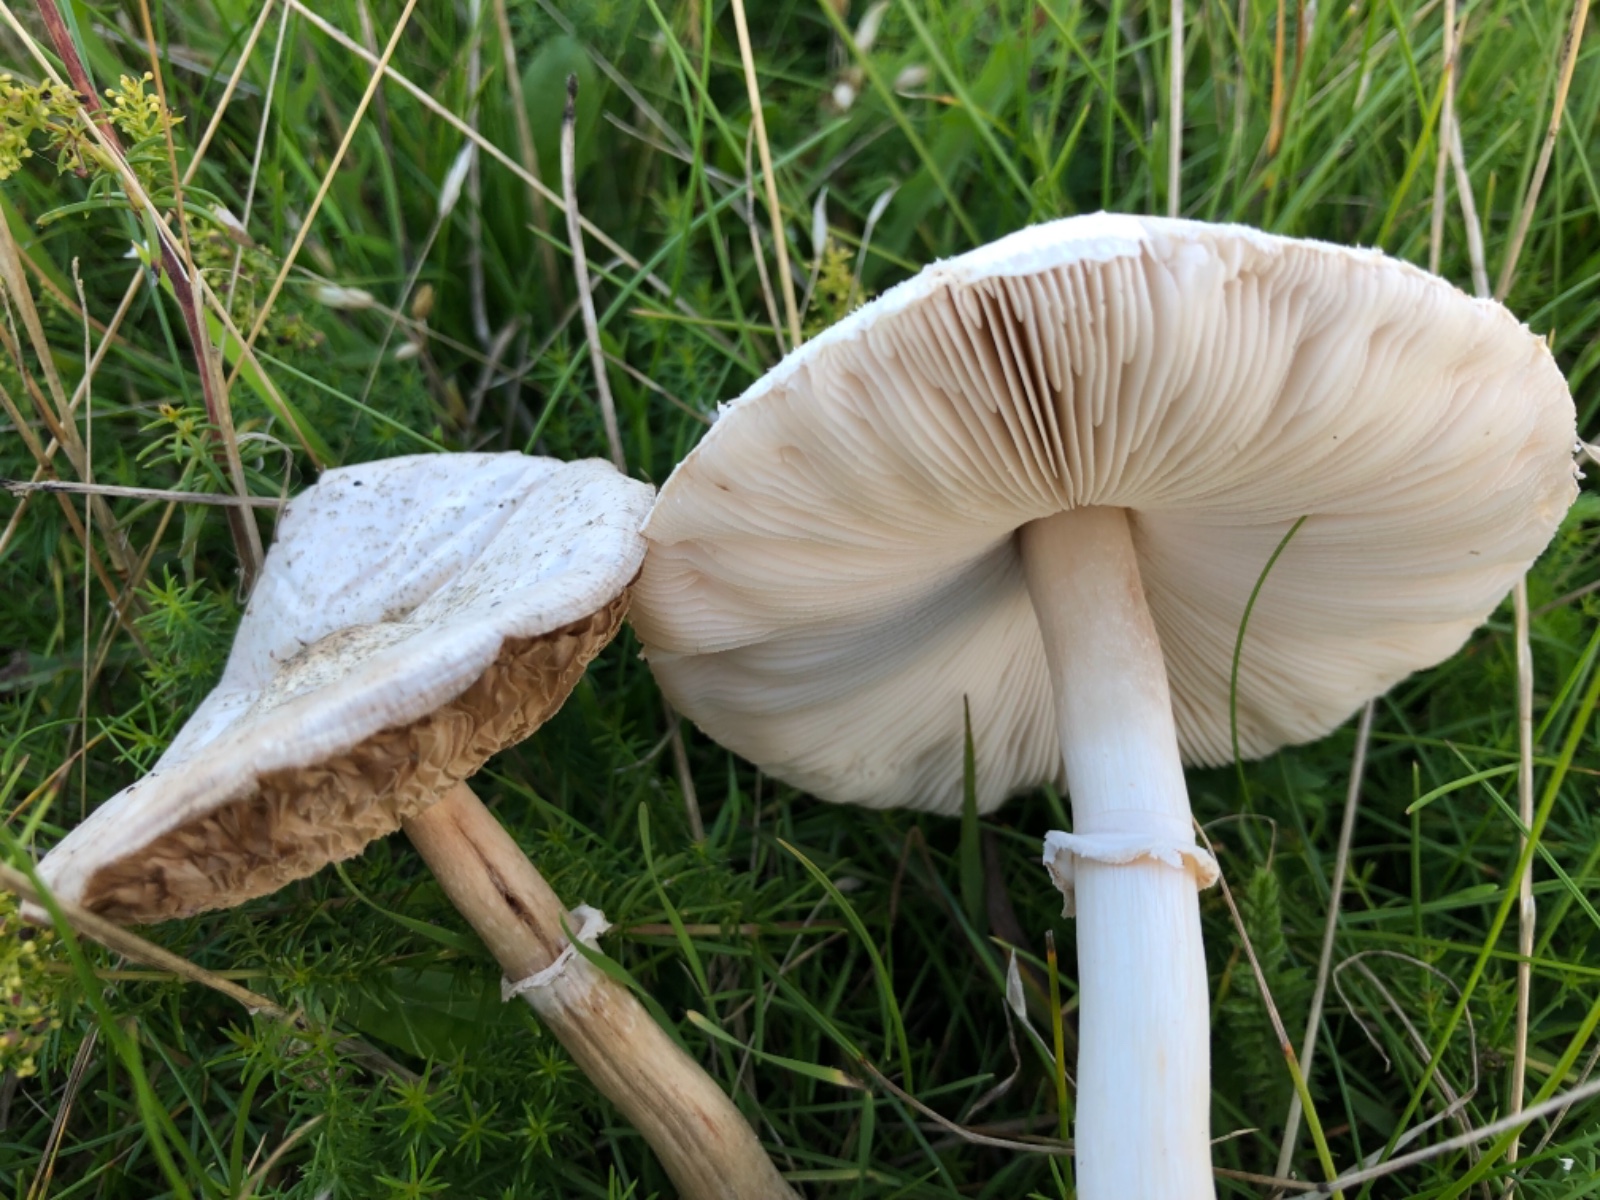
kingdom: Fungi
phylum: Basidiomycota
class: Agaricomycetes
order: Agaricales
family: Agaricaceae
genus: Macrolepiota
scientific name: Macrolepiota excoriata
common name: mark-kæmpeparasolhat
